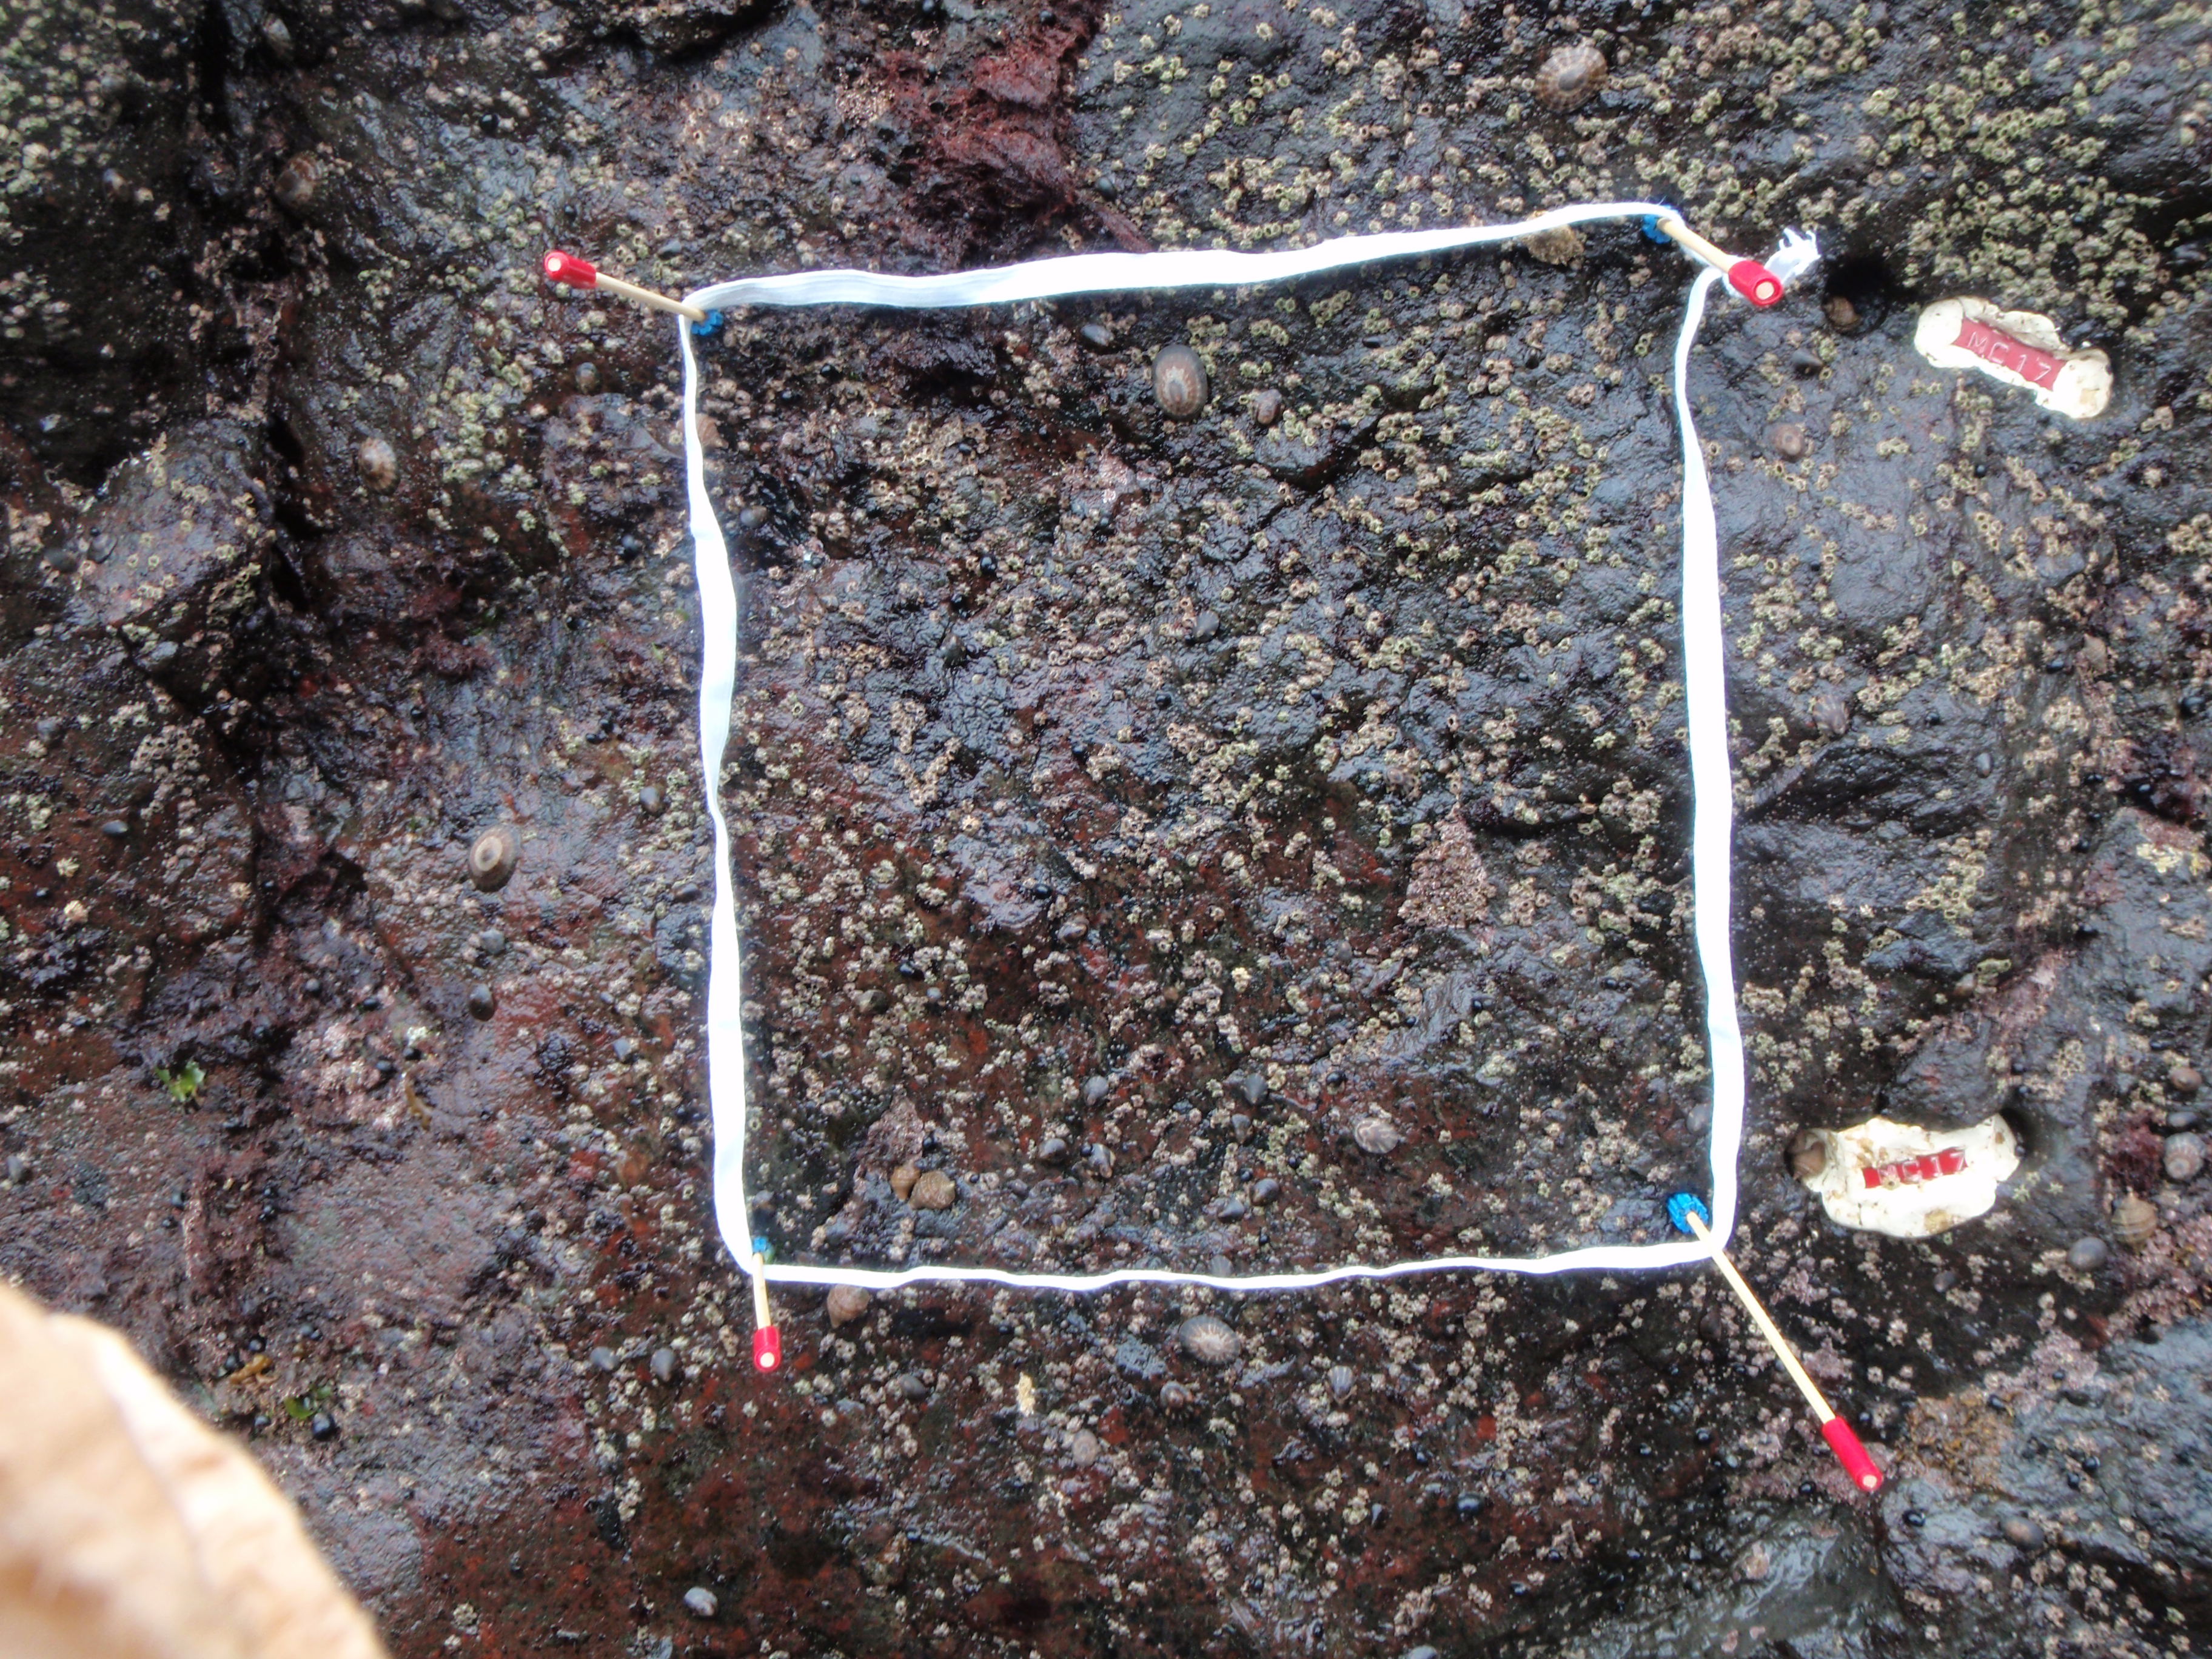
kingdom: Plantae
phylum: Rhodophyta
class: Florideophyceae
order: Corallinales
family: Corallinaceae
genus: Corallina
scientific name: Corallina pilulifera
